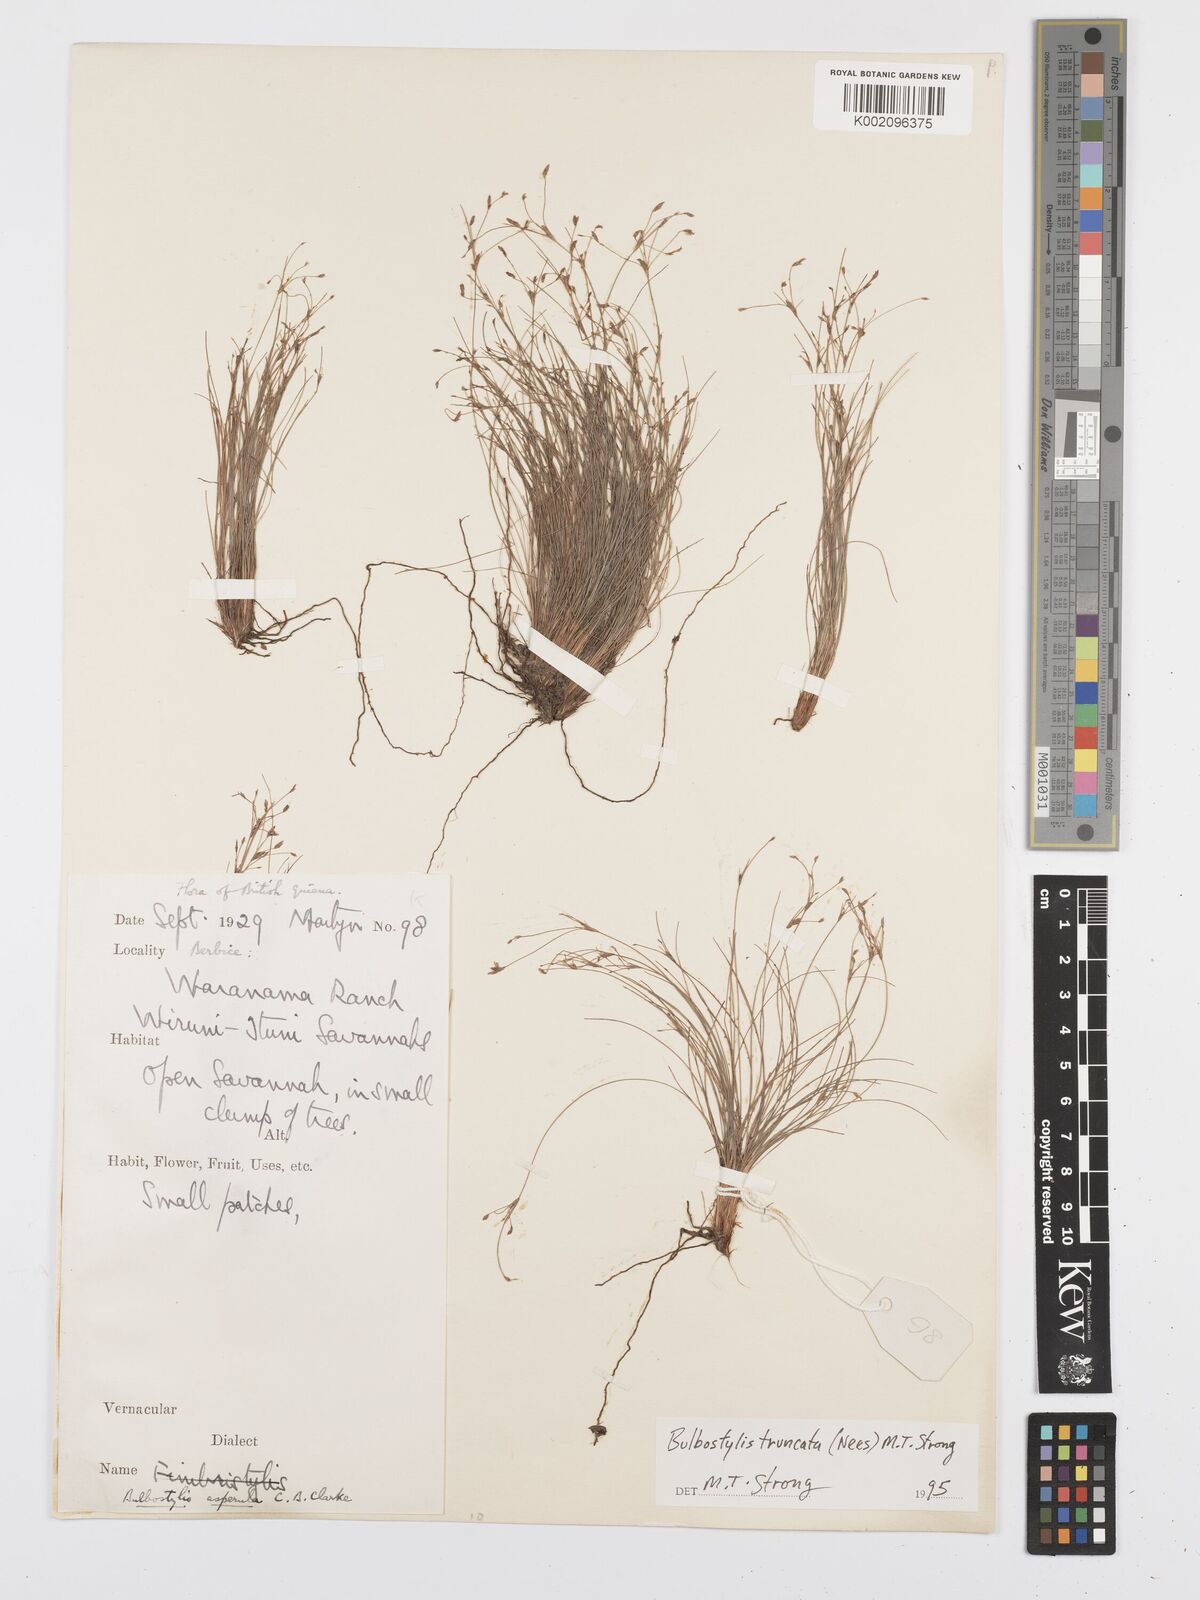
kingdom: Plantae
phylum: Tracheophyta
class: Liliopsida
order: Poales
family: Cyperaceae
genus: Bulbostylis
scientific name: Bulbostylis truncata
